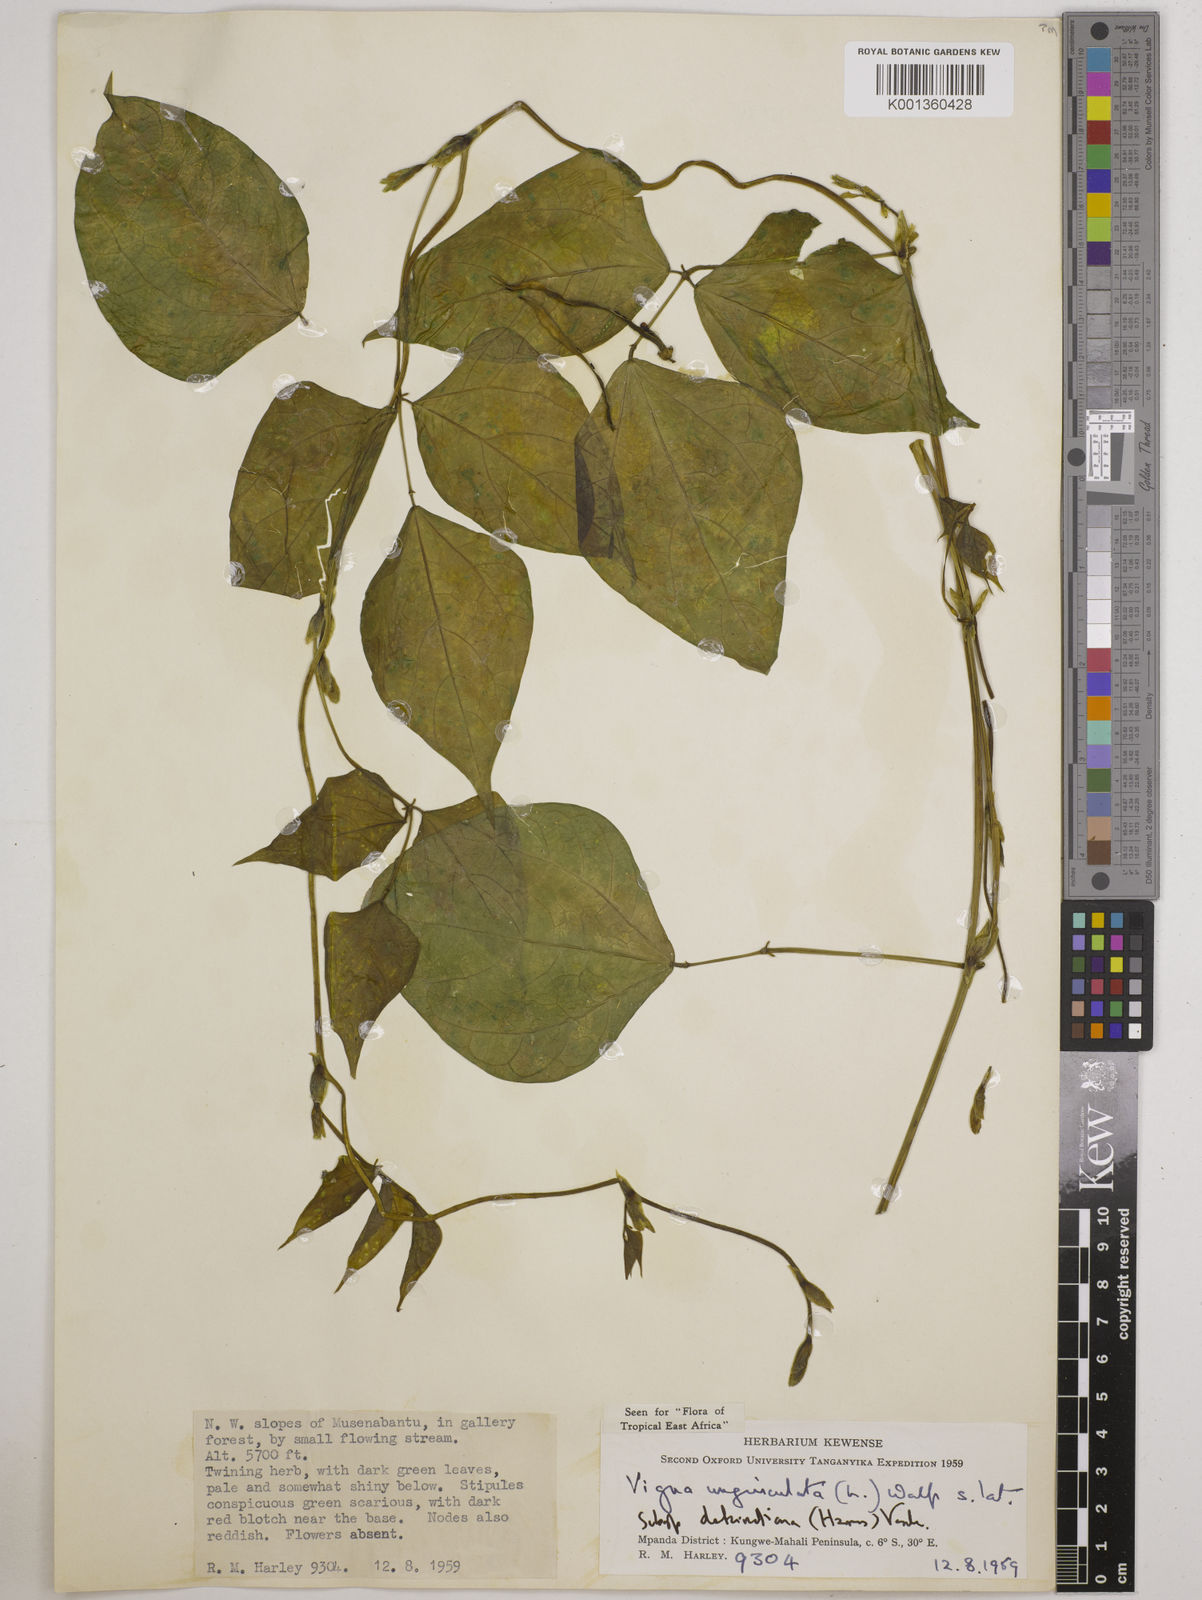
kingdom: Plantae
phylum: Tracheophyta
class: Magnoliopsida
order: Fabales
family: Fabaceae
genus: Vigna
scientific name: Vigna
